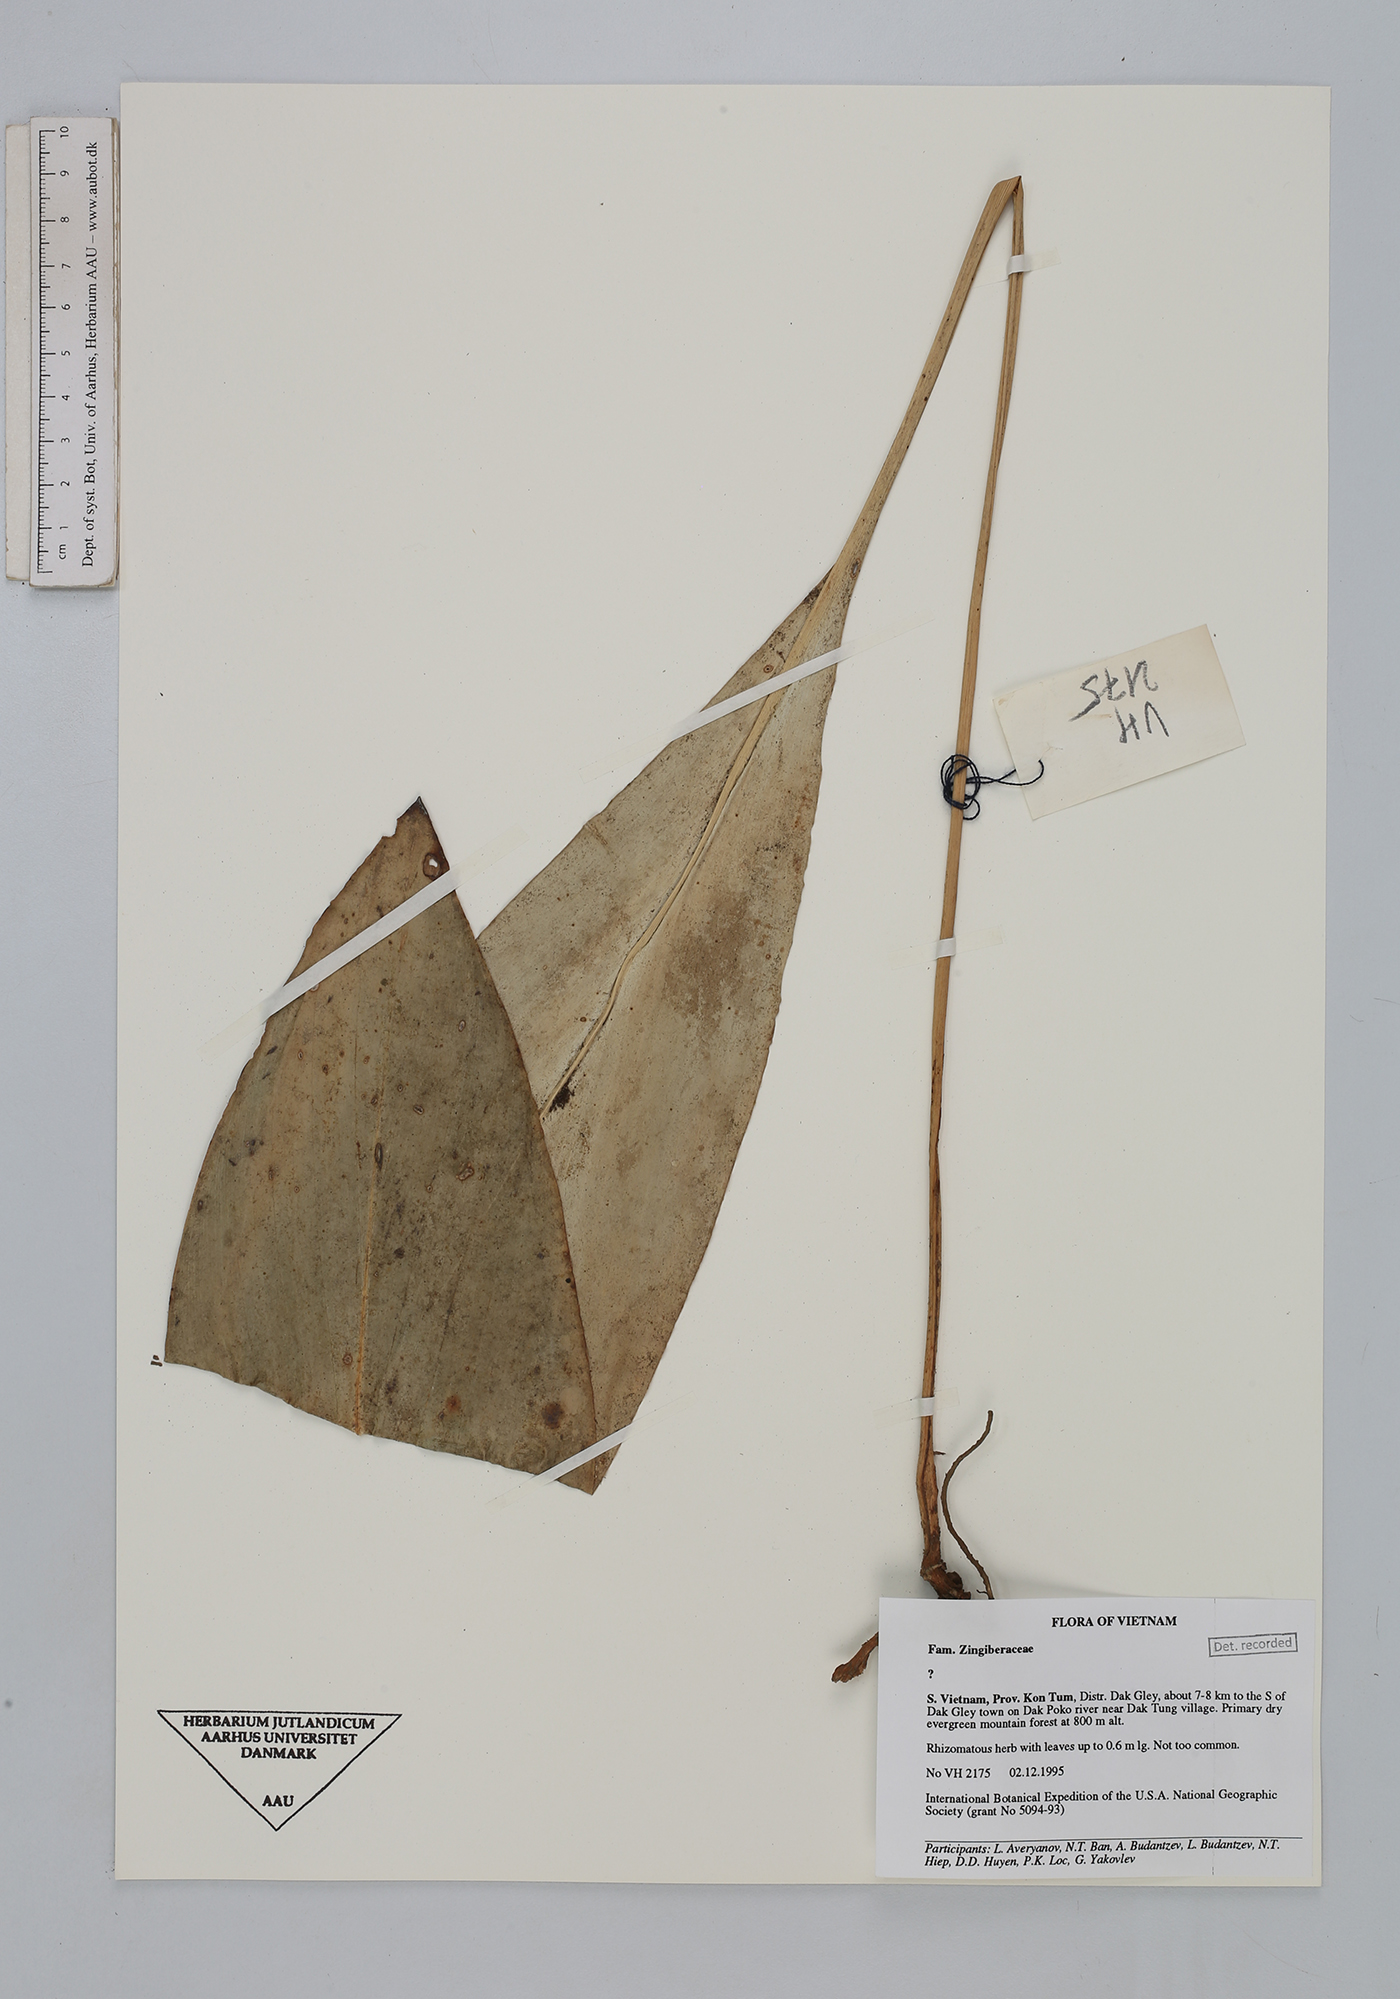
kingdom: Plantae
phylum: Tracheophyta
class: Liliopsida
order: Zingiberales
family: Zingiberaceae
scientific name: Zingiberaceae
